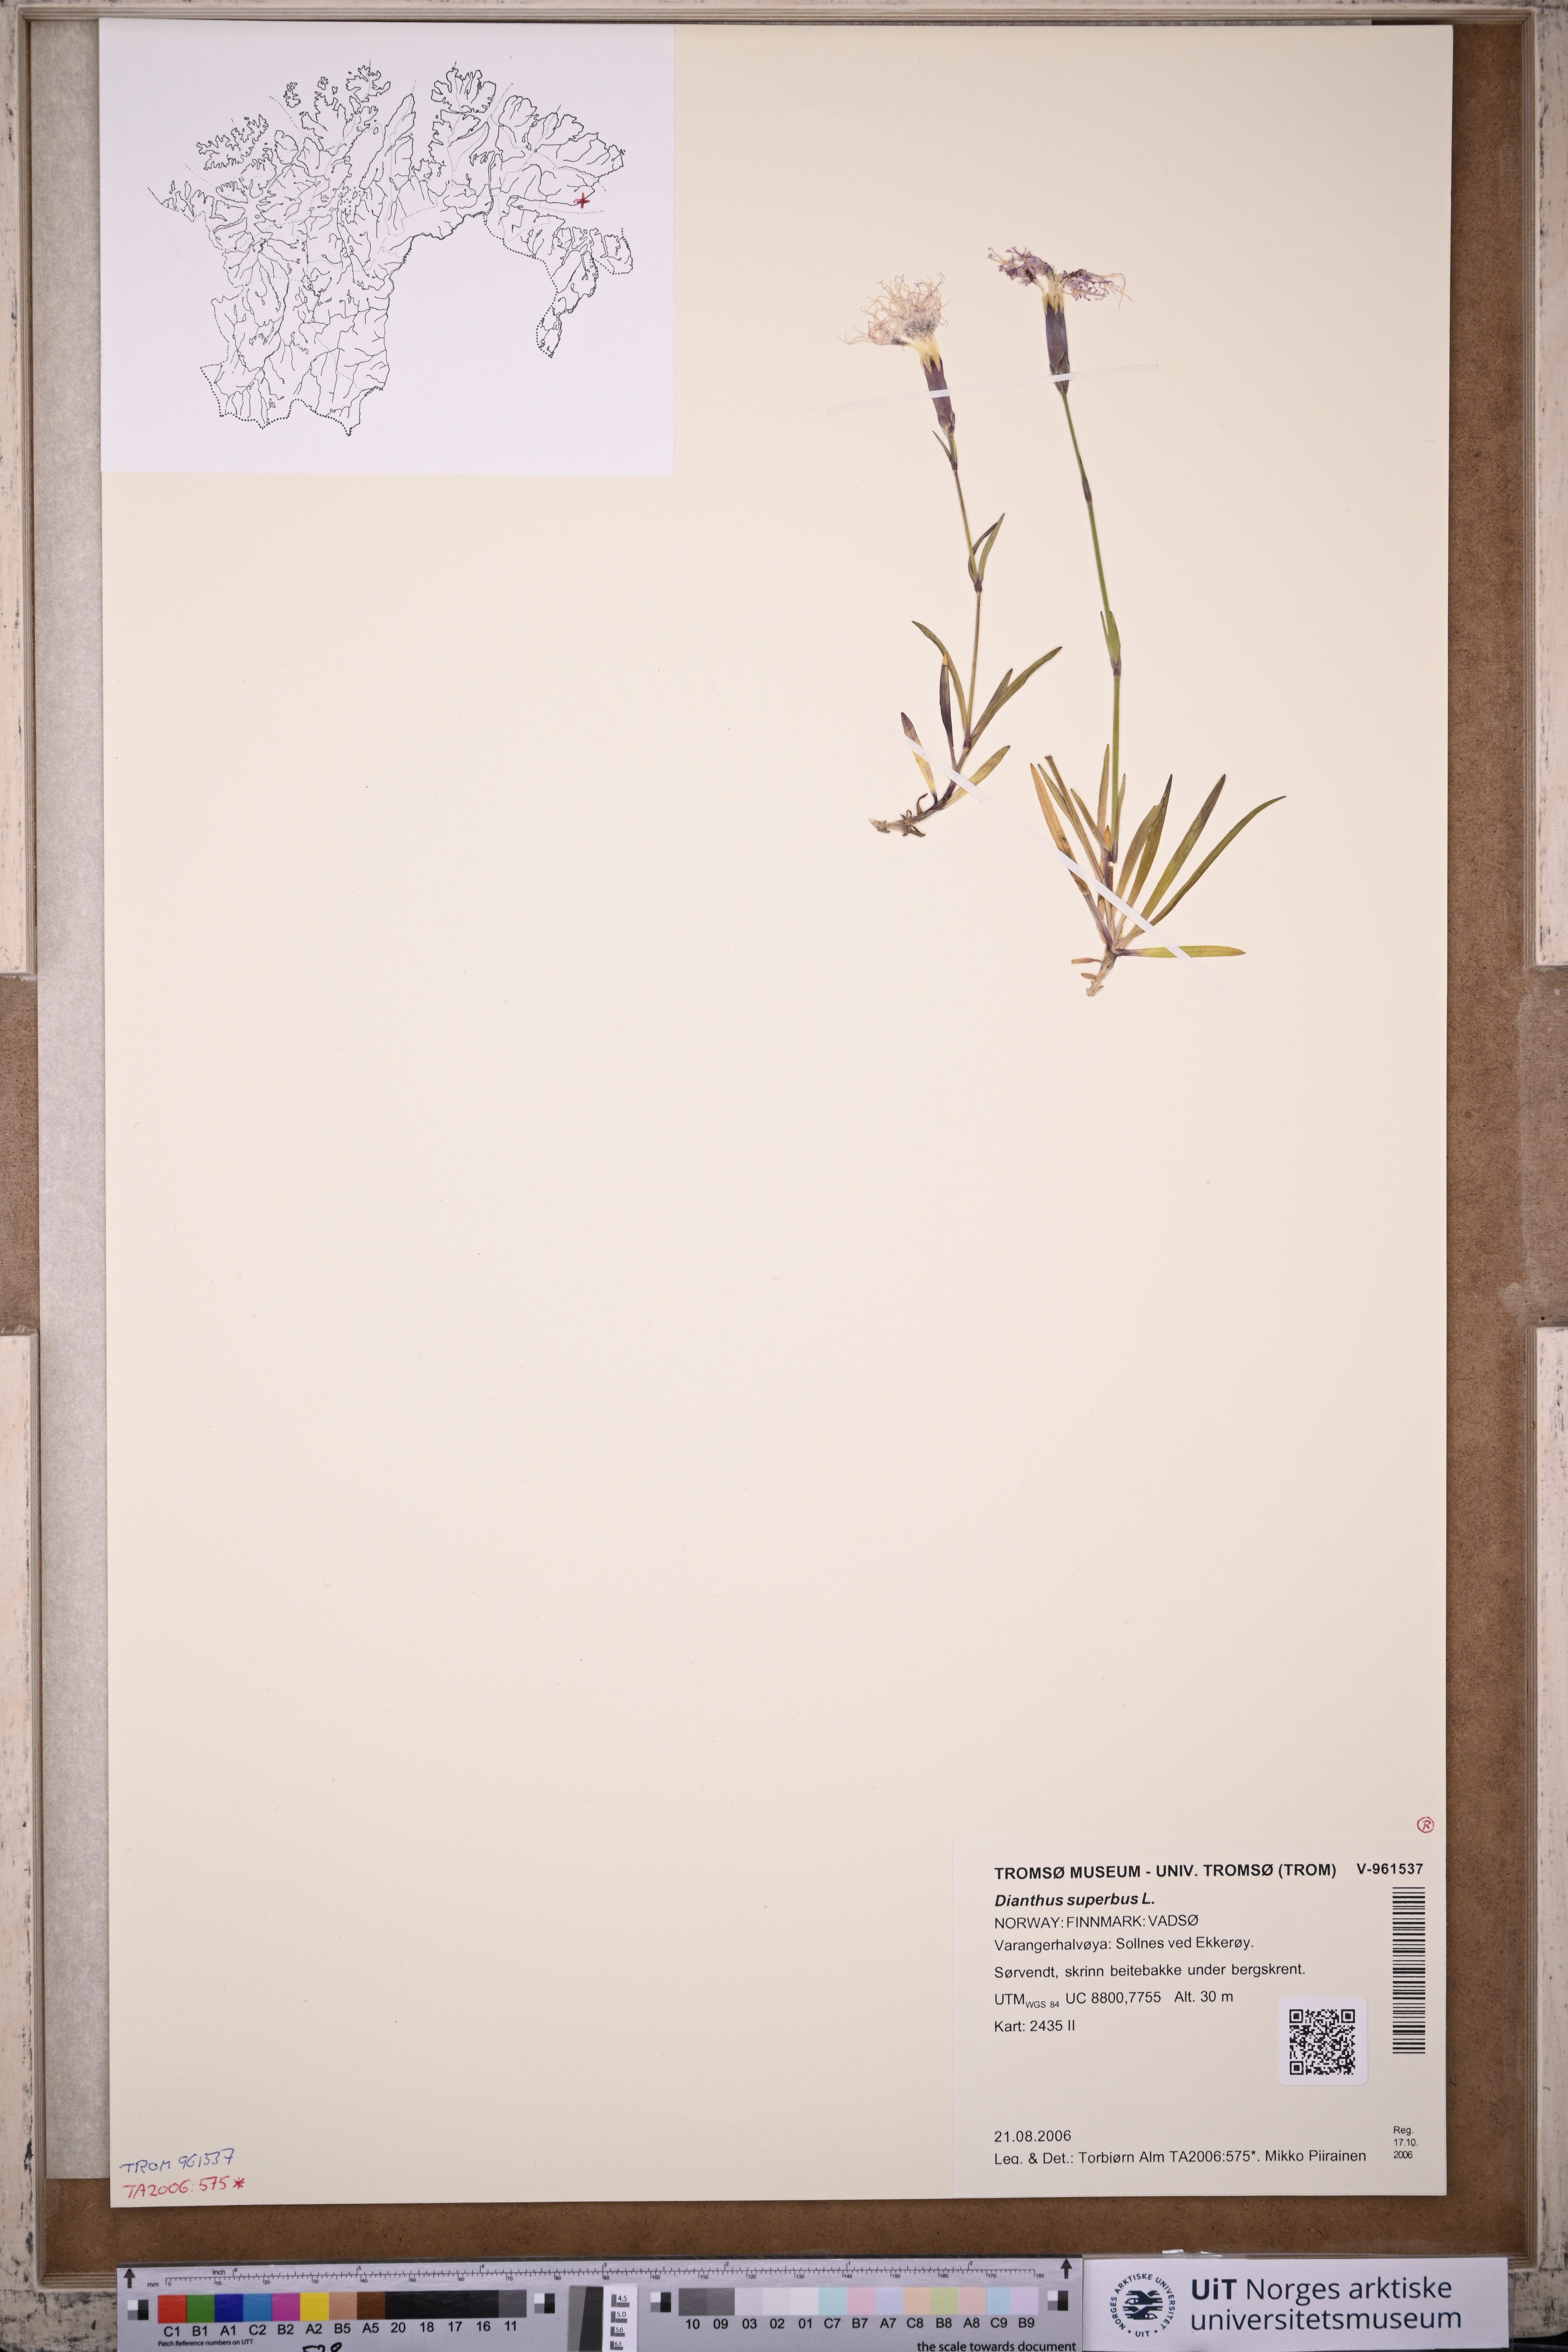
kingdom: Plantae
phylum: Tracheophyta
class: Magnoliopsida
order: Caryophyllales
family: Caryophyllaceae
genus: Dianthus
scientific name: Dianthus superbus
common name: Fringed pink
